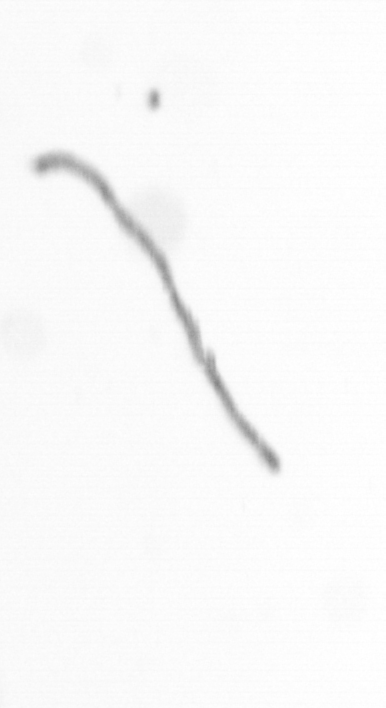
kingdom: Chromista
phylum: Ochrophyta
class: Bacillariophyceae
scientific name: Bacillariophyceae
